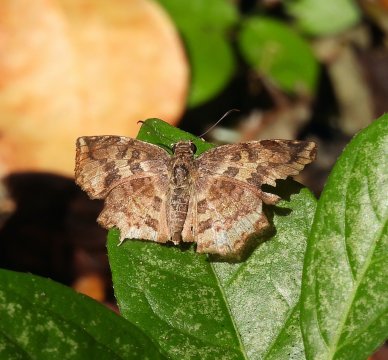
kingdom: Animalia
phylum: Arthropoda
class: Insecta
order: Lepidoptera
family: Hesperiidae
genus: Antigonus
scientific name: Antigonus erosus
